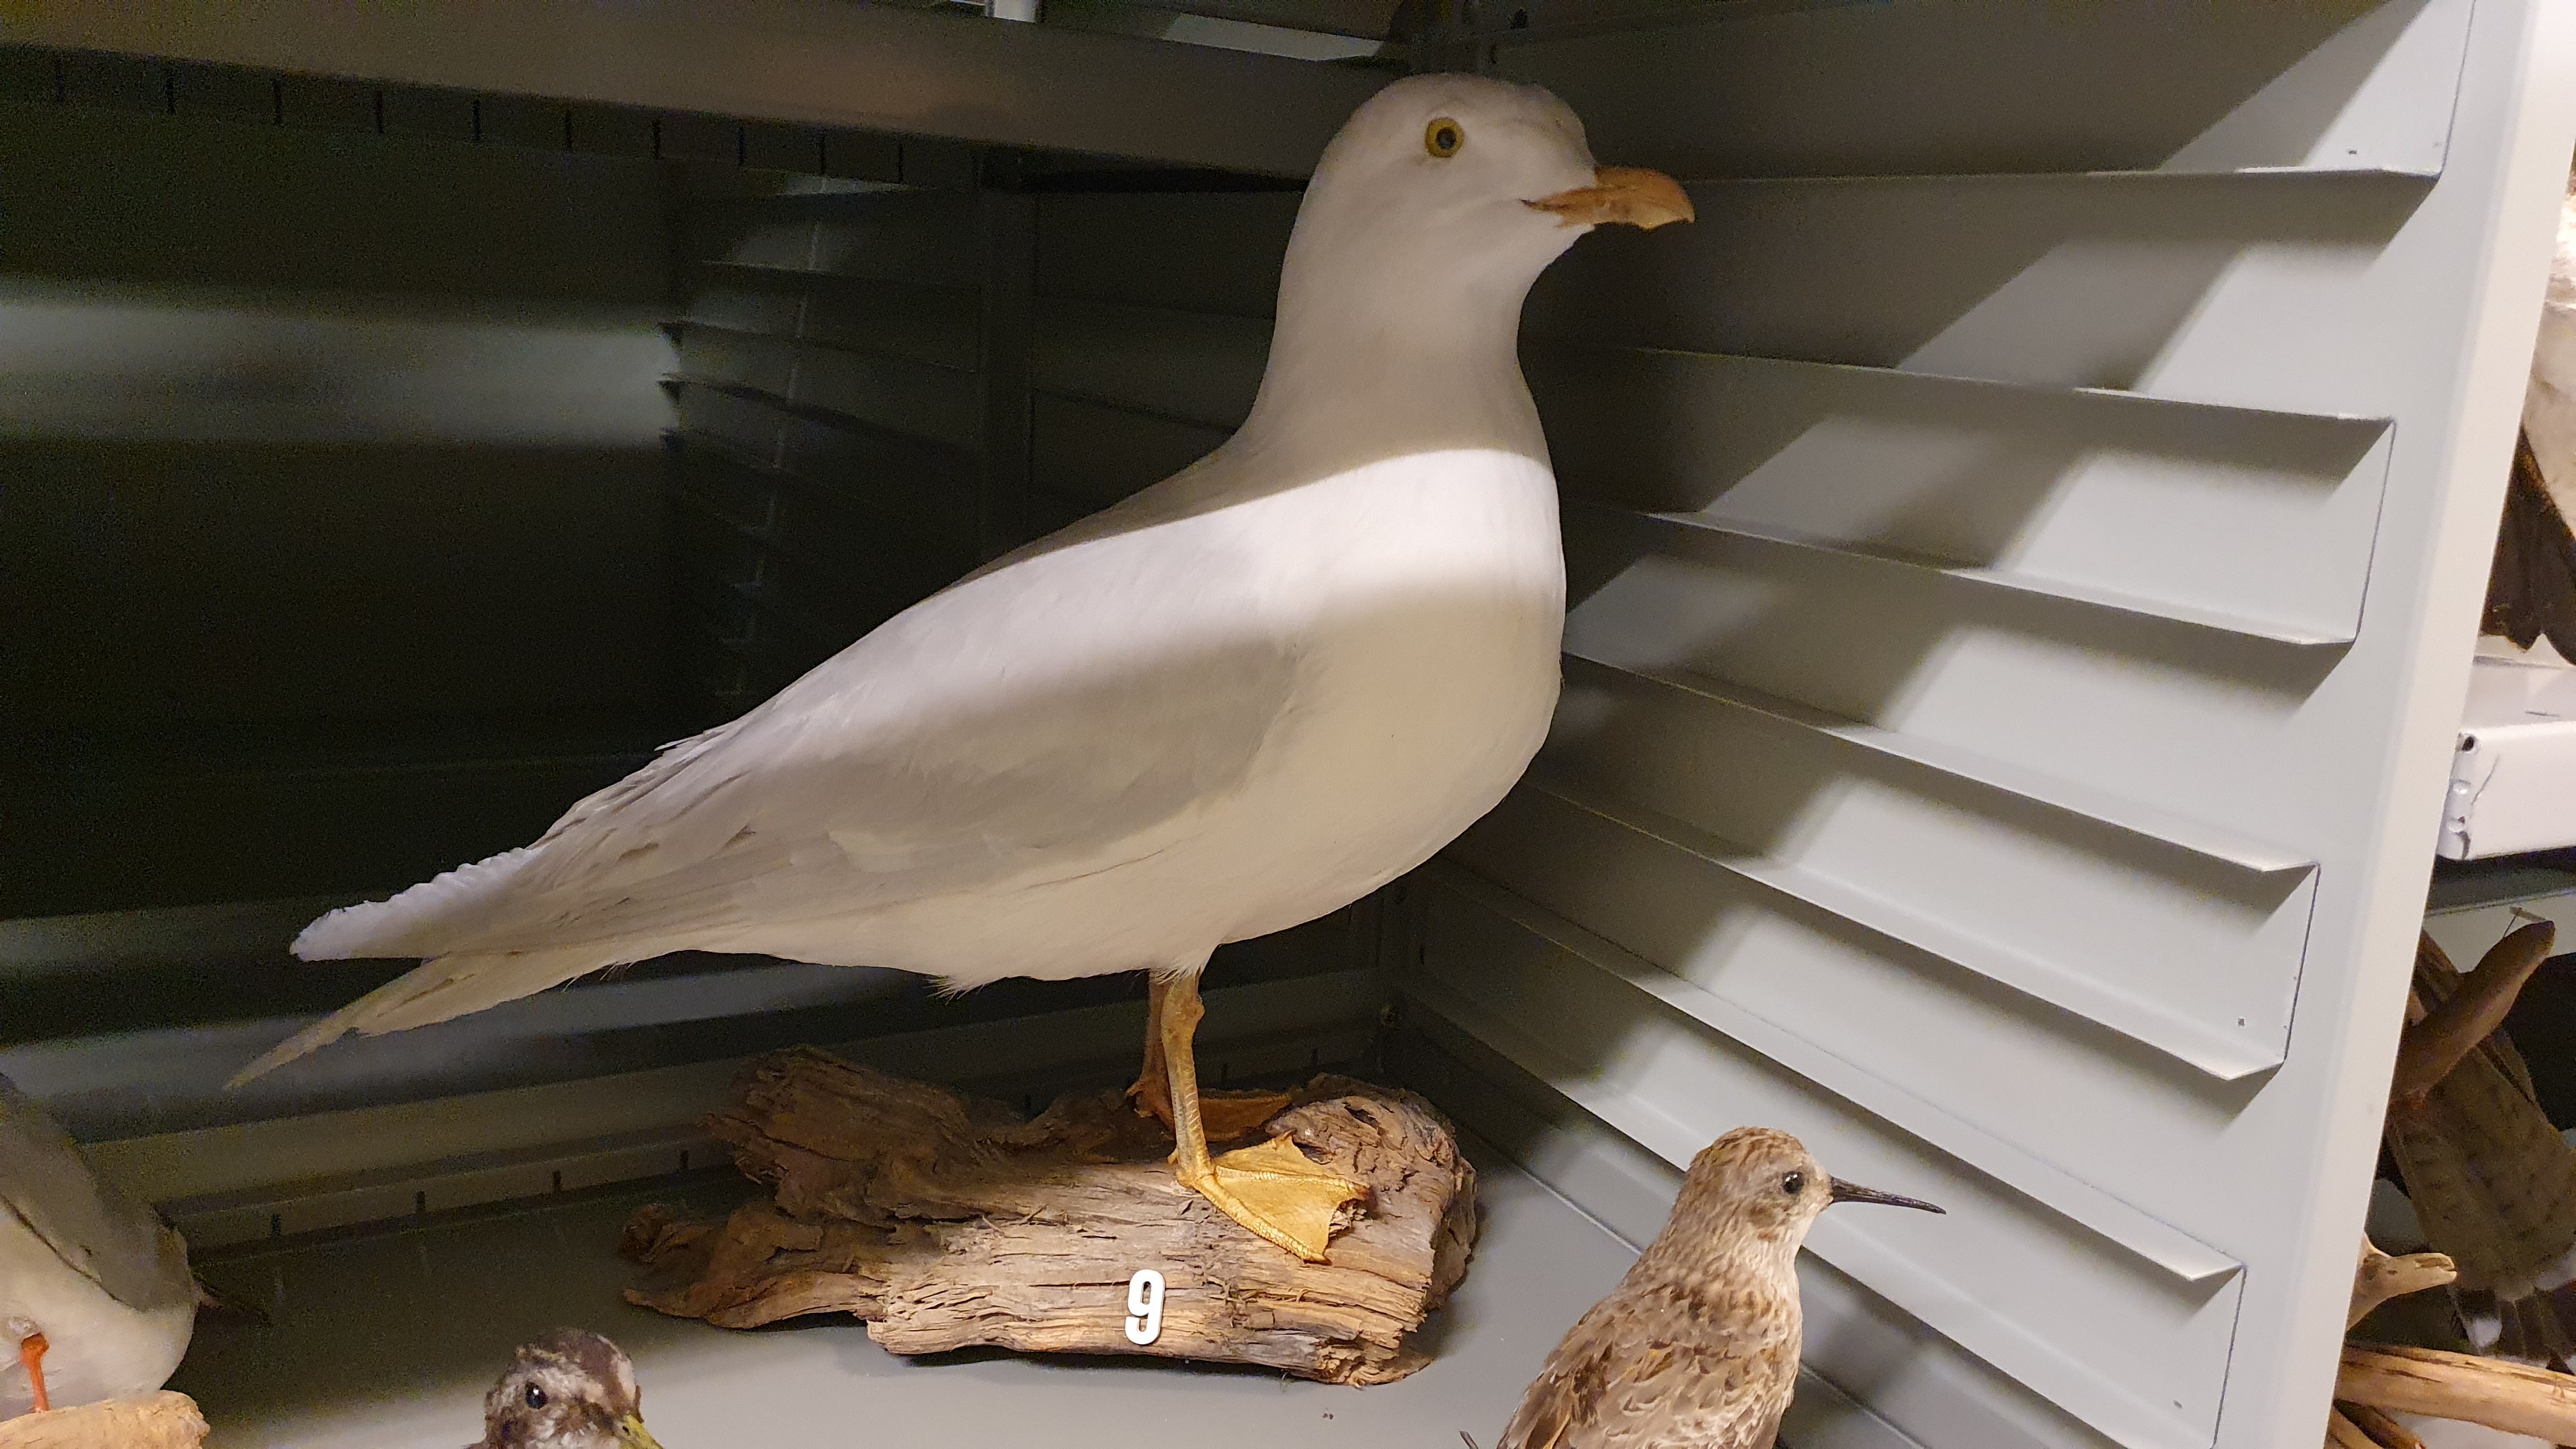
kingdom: Animalia
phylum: Chordata
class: Aves
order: Charadriiformes
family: Laridae
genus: Larus
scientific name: Larus glaucoides
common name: Iceland gull
